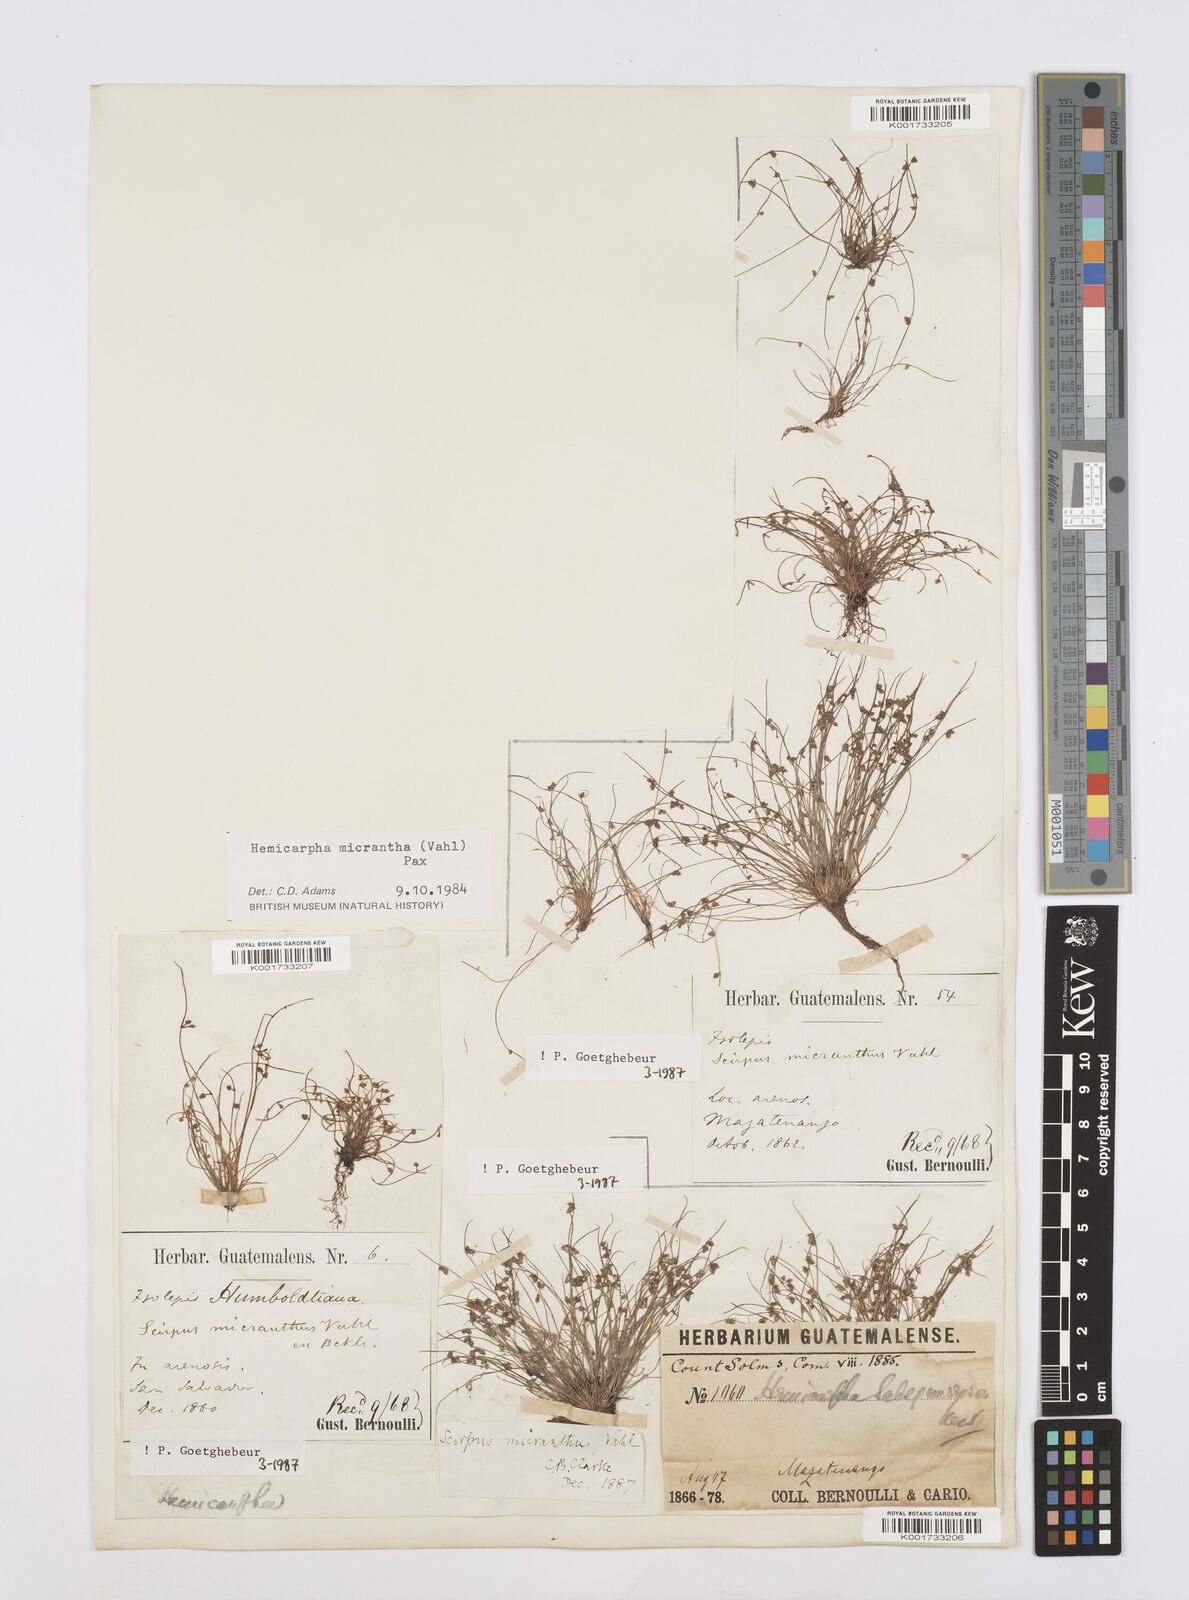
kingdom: Plantae
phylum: Tracheophyta
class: Liliopsida
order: Poales
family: Cyperaceae
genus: Cyperus
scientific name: Cyperus
